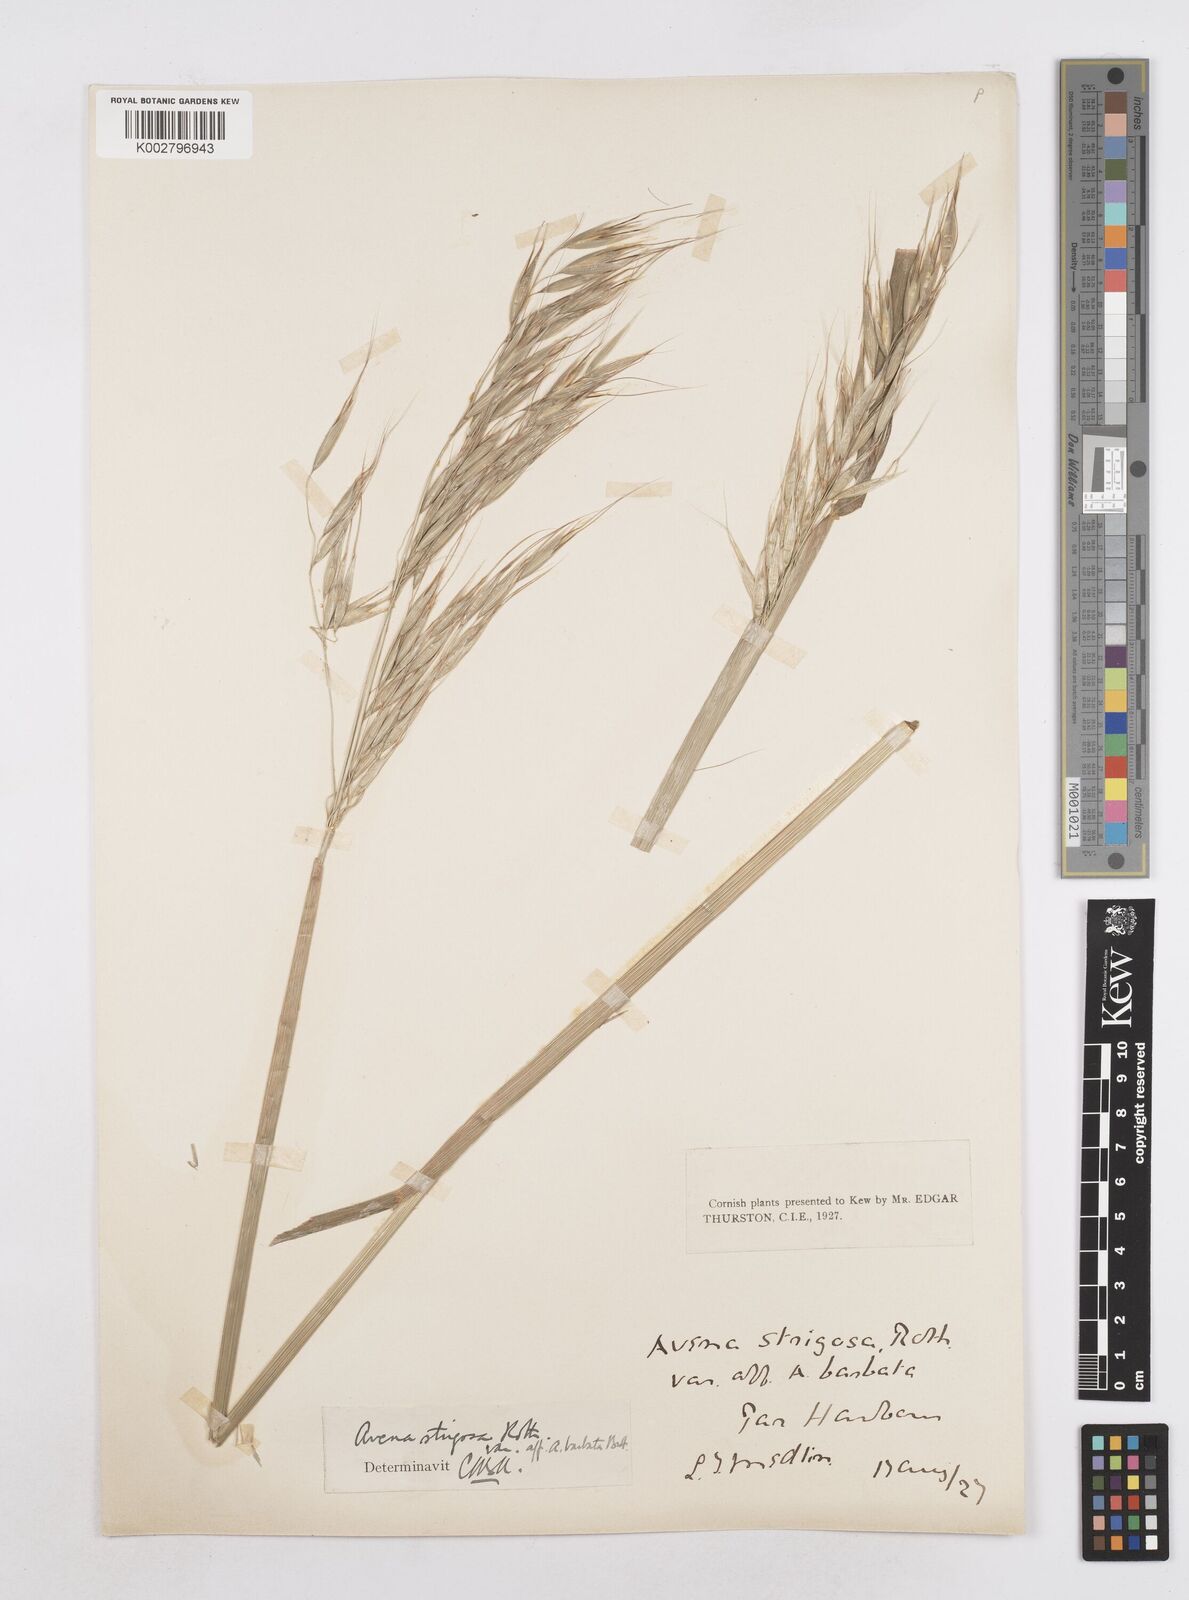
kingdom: Plantae
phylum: Tracheophyta
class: Liliopsida
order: Poales
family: Poaceae
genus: Avena
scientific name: Avena strigosa
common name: Bristle oat
